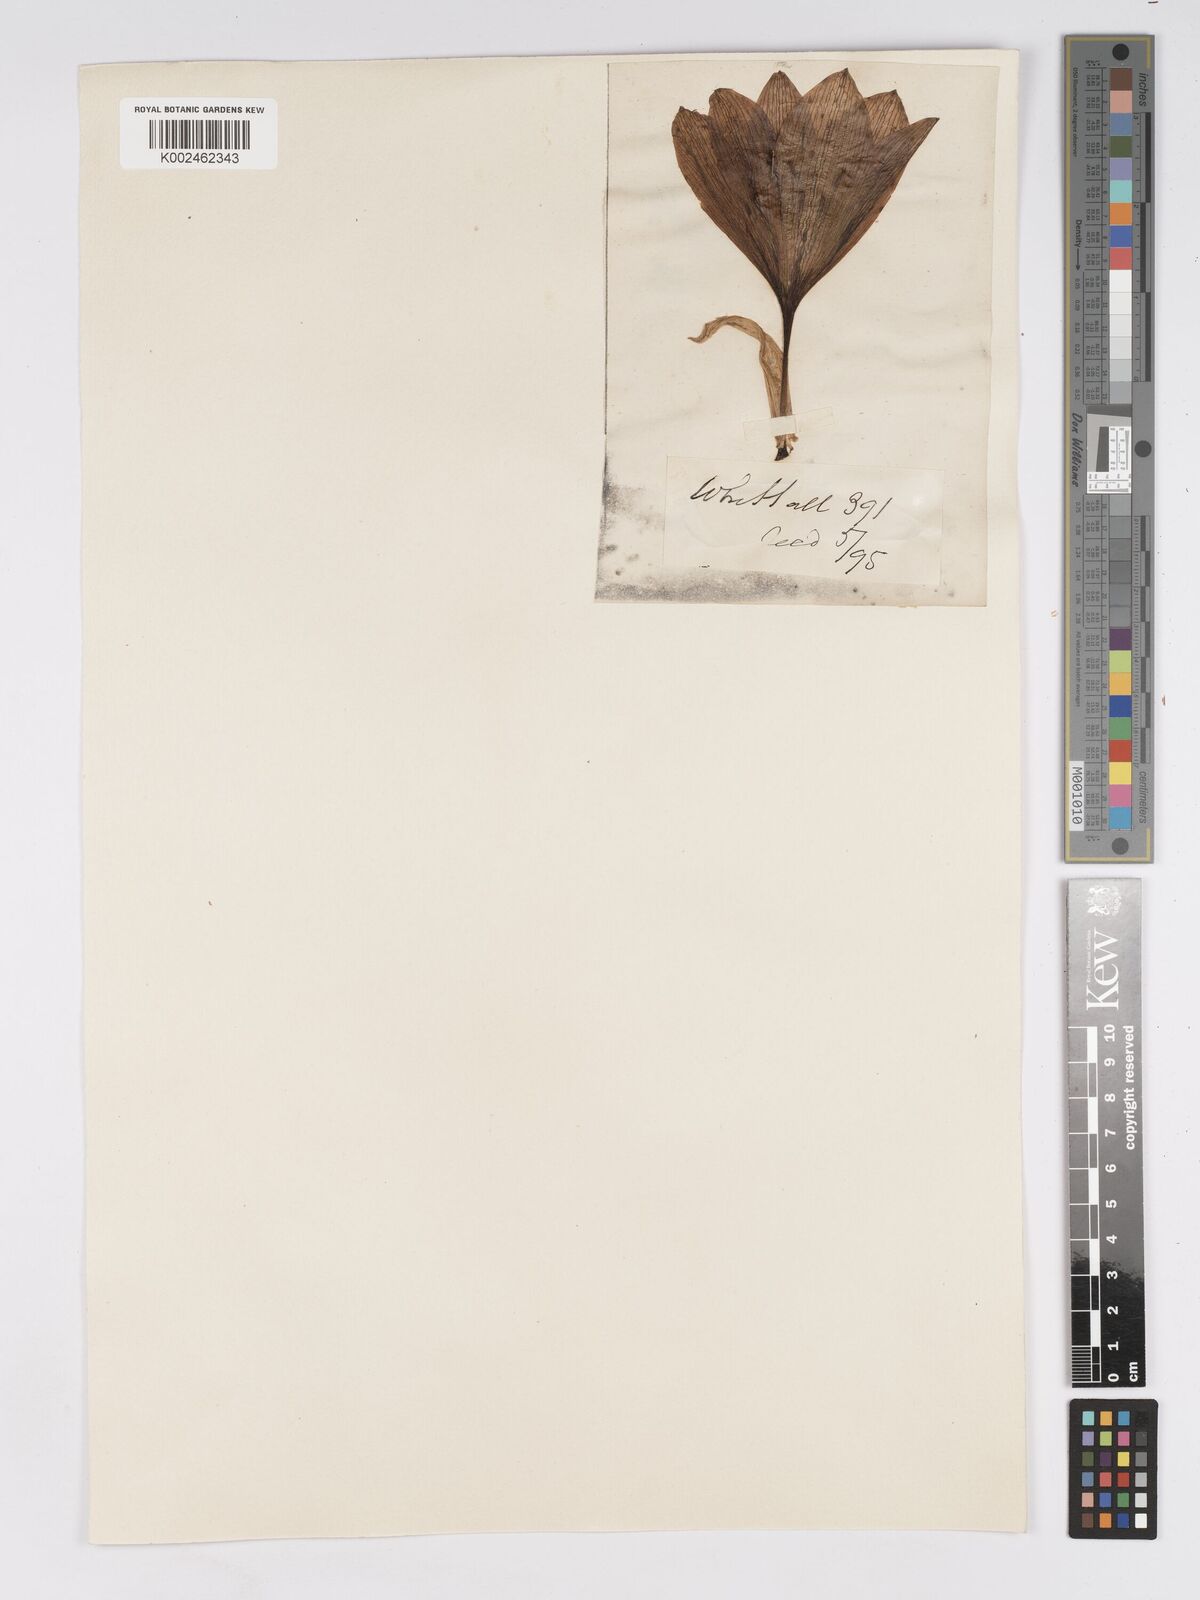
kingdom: Plantae
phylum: Tracheophyta
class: Liliopsida
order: Asparagales
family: Amaryllidaceae
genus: Sternbergia
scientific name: Sternbergia clusiana
